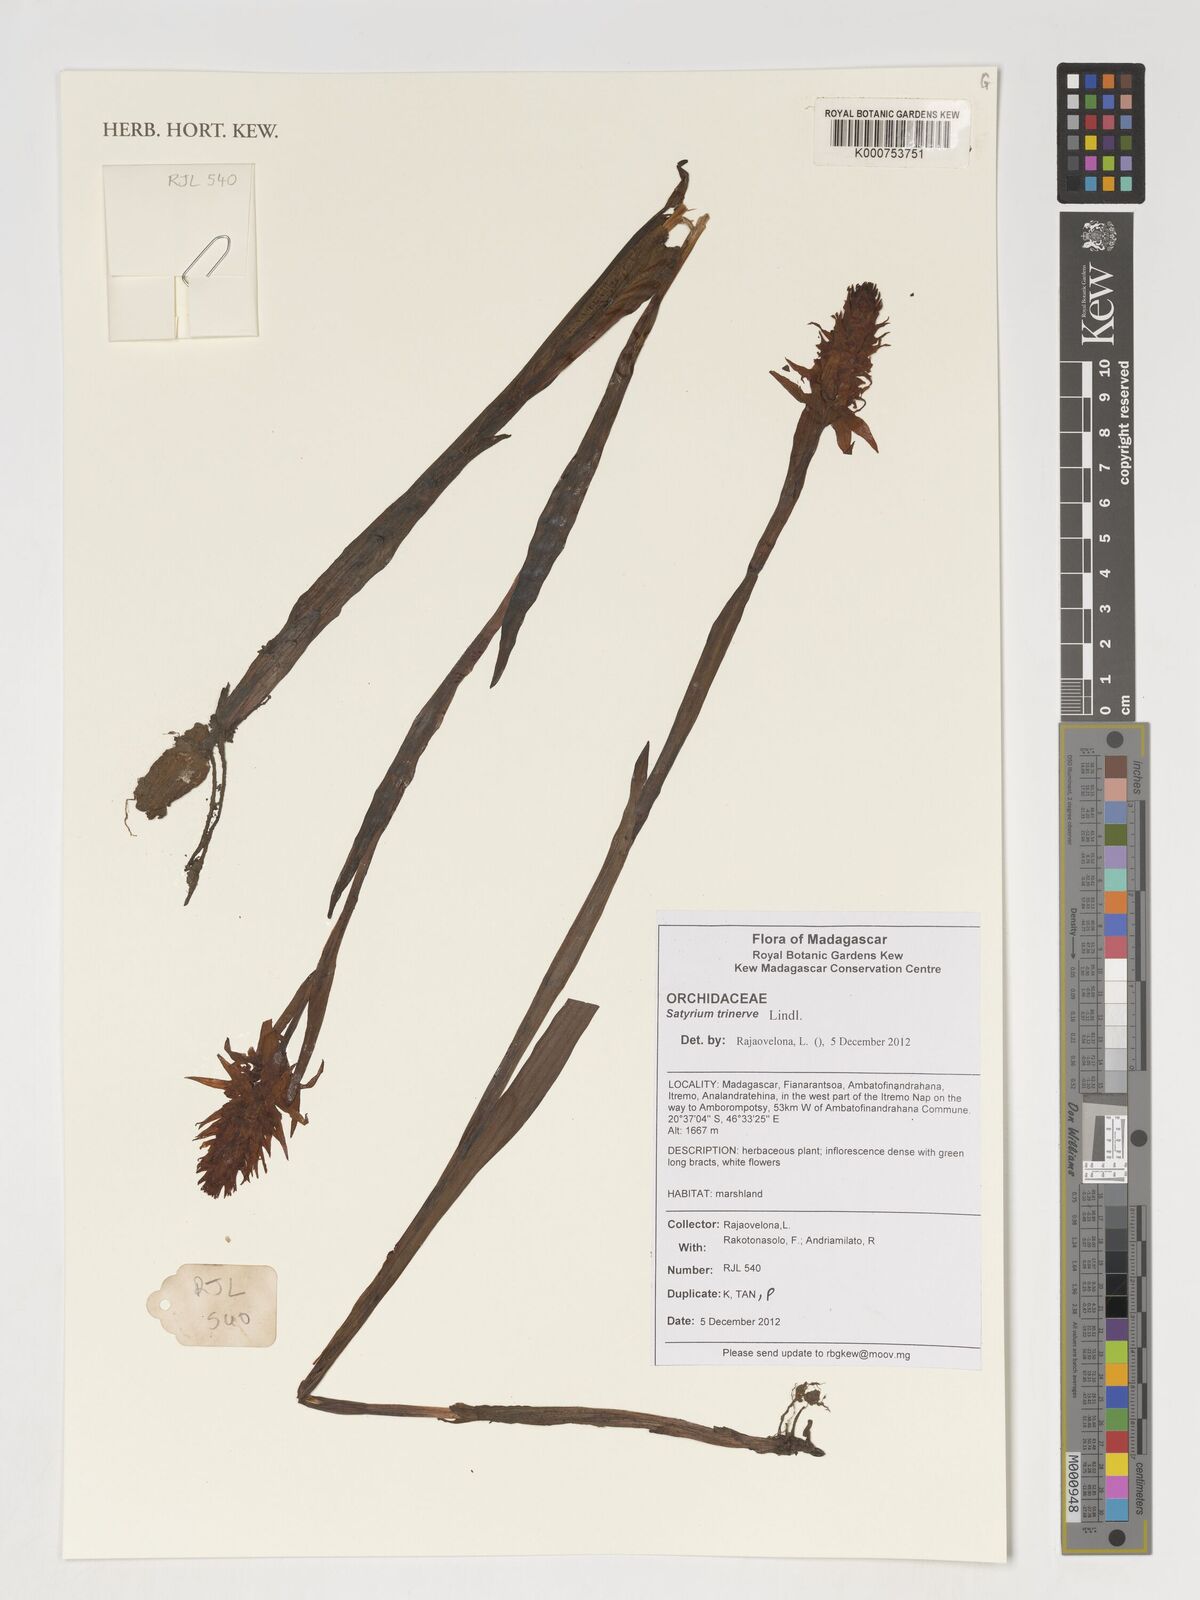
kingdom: Plantae
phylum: Tracheophyta
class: Liliopsida
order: Asparagales
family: Orchidaceae
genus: Satyrium
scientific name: Satyrium trinerve
